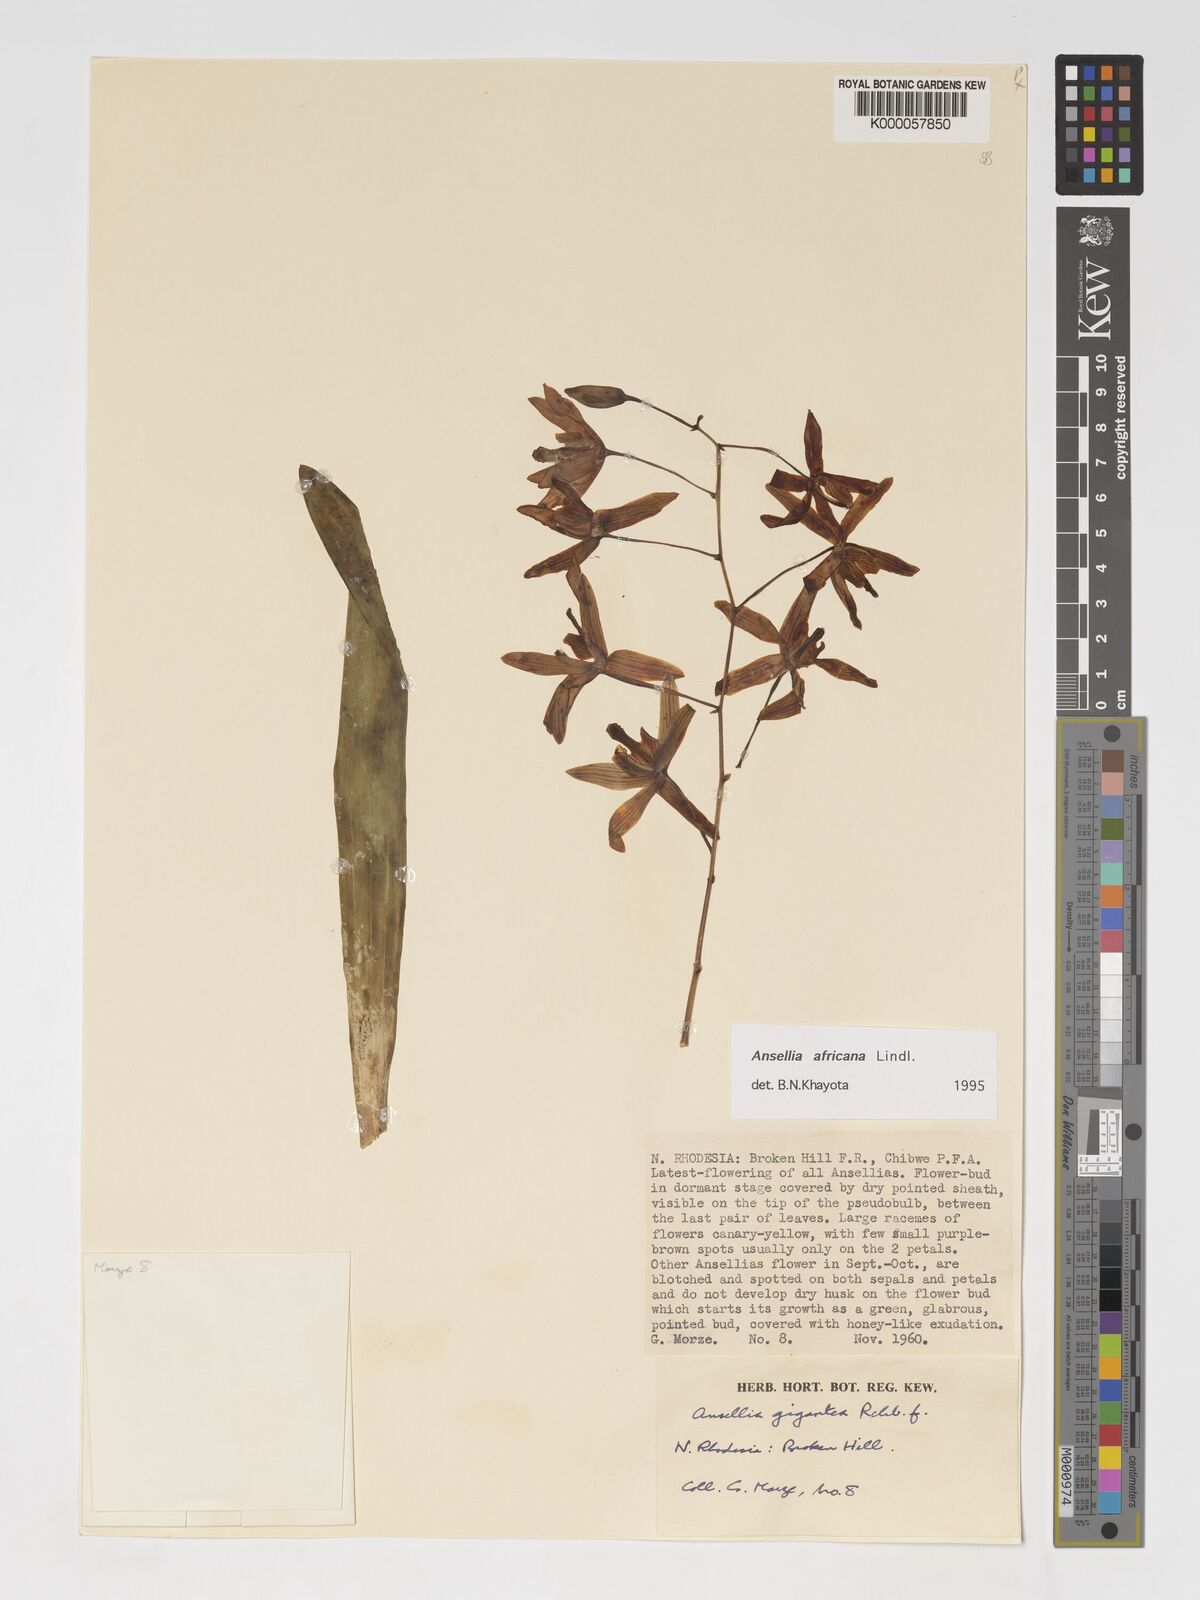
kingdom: Plantae
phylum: Tracheophyta
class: Liliopsida
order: Asparagales
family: Orchidaceae
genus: Ansellia
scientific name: Ansellia africana
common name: African ansellia
